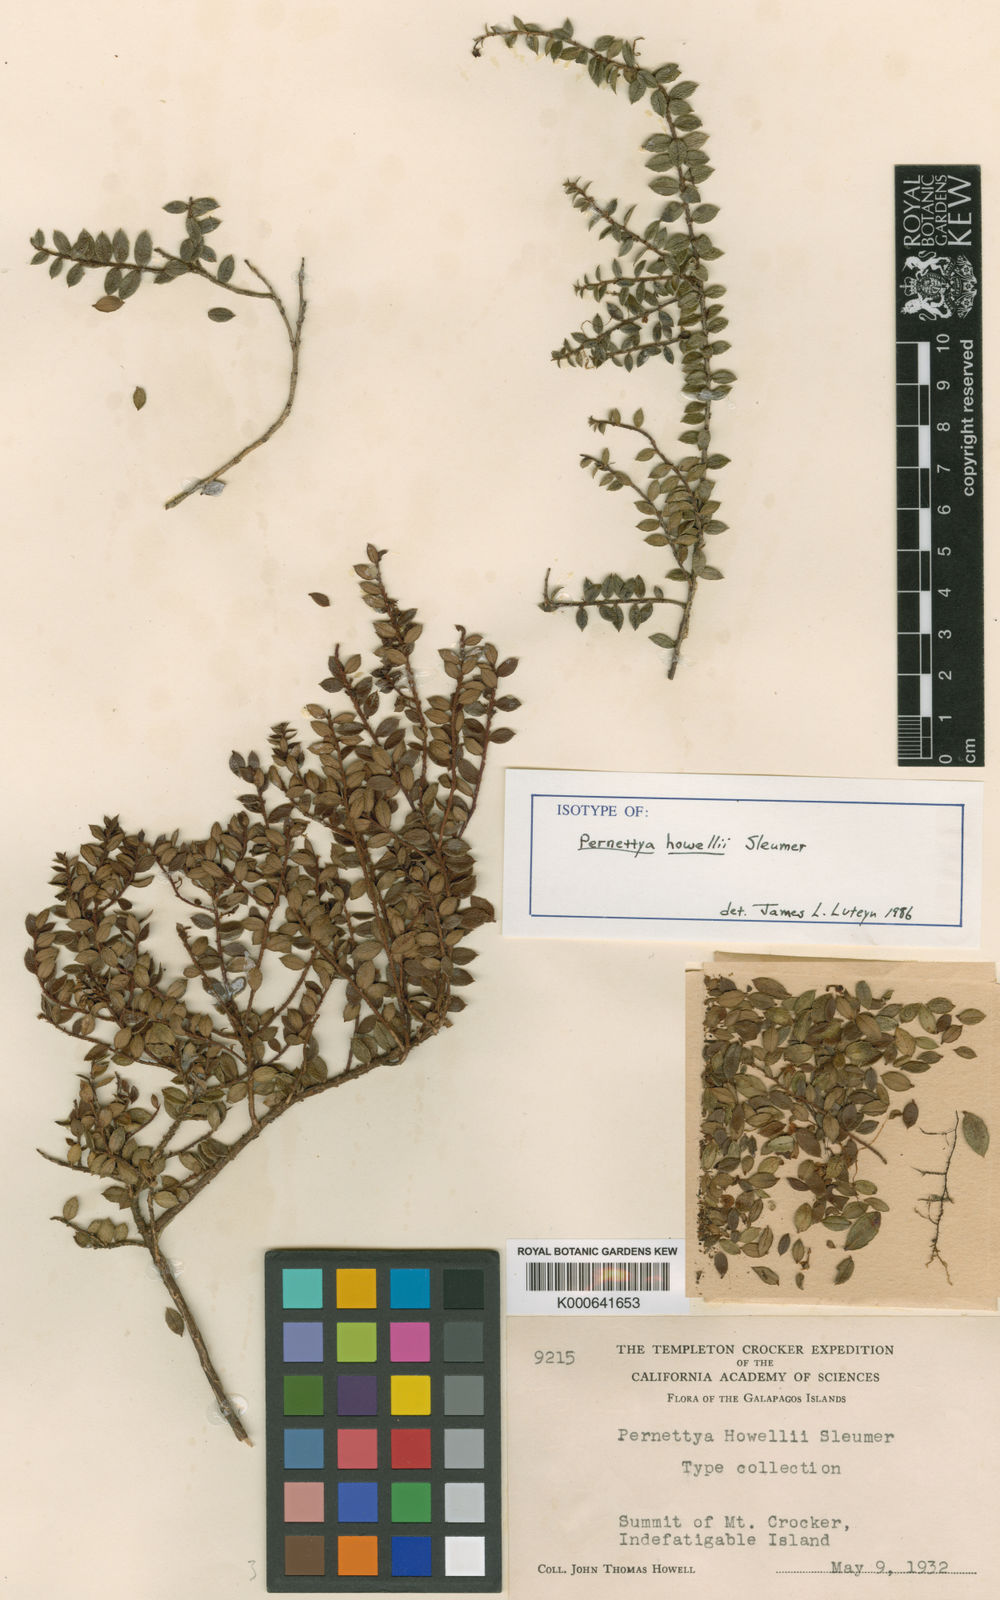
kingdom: Plantae
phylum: Tracheophyta
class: Magnoliopsida
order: Ericales
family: Ericaceae
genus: Gaultheria
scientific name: Gaultheria howellii
